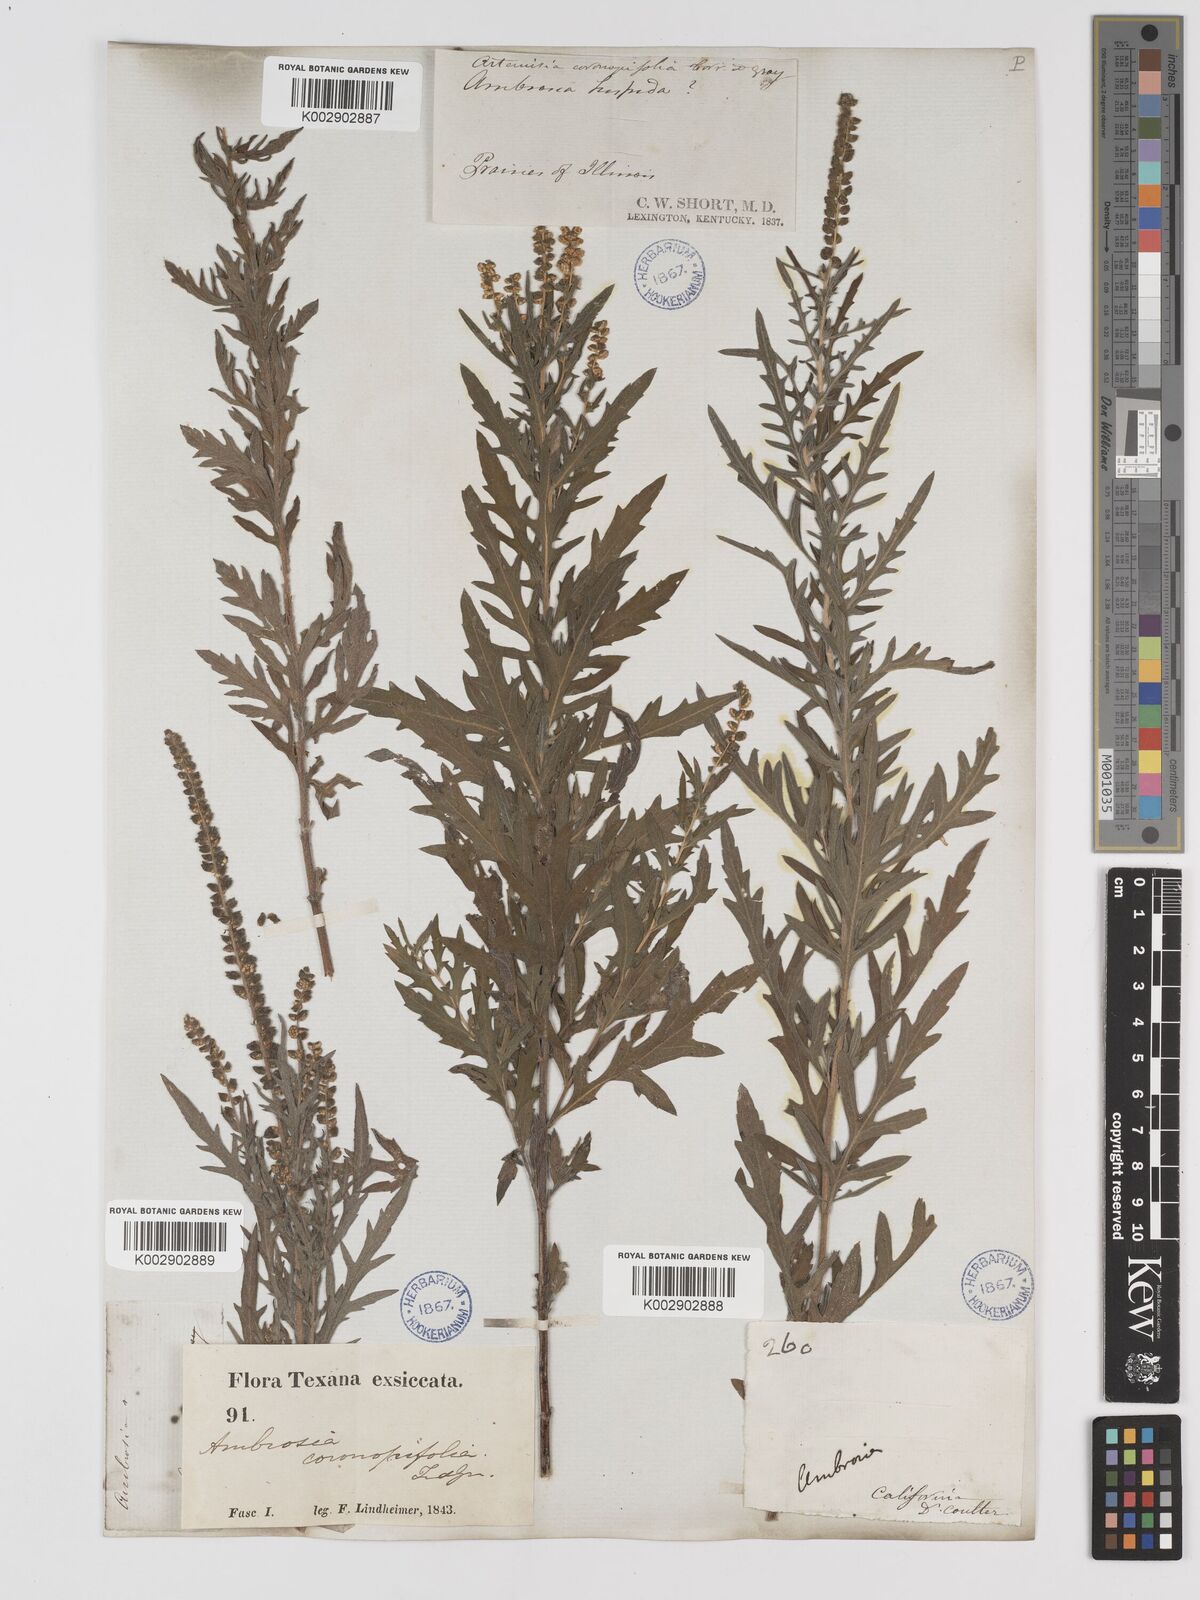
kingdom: Plantae
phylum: Tracheophyta
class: Magnoliopsida
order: Asterales
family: Asteraceae
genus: Ambrosia
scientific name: Ambrosia psilostachya
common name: Perennial ragweed
